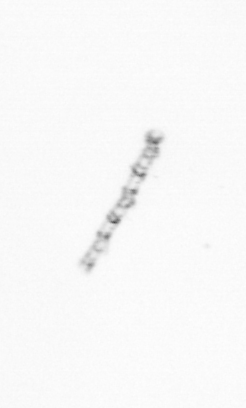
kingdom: Chromista
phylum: Ochrophyta
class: Bacillariophyceae
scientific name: Bacillariophyceae
